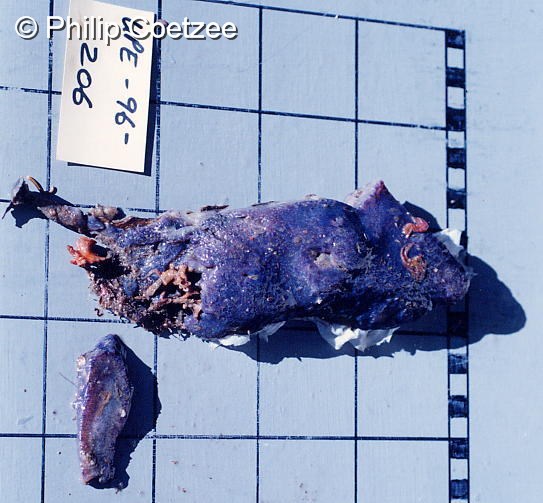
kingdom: Animalia
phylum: Chordata
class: Ascidiacea
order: Aplousobranchia
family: Holozoidae
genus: Distaplia
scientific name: Distaplia skoogi
